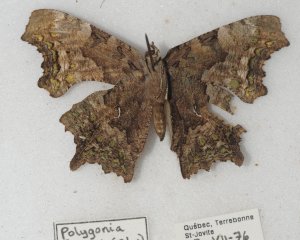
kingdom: Animalia
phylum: Arthropoda
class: Insecta
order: Lepidoptera
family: Nymphalidae
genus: Polygonia
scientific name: Polygonia faunus
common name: Green Comma
